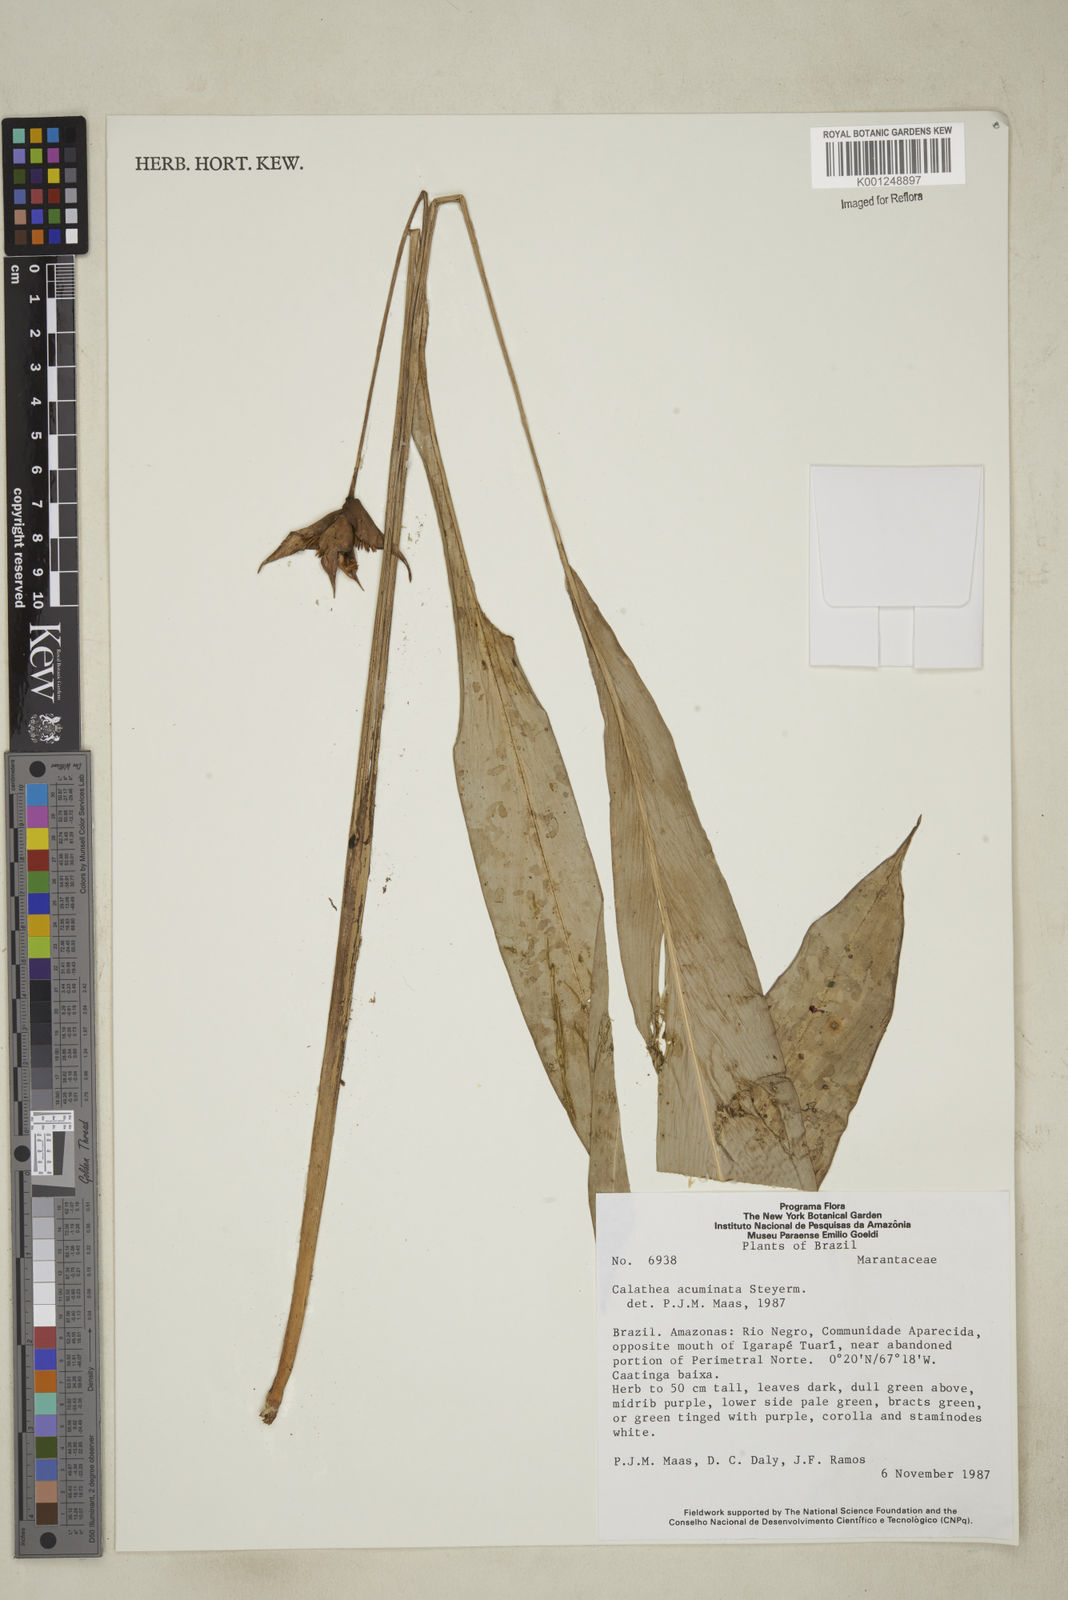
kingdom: Plantae
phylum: Tracheophyta
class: Liliopsida
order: Zingiberales
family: Marantaceae
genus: Goeppertia
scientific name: Goeppertia acuminata
